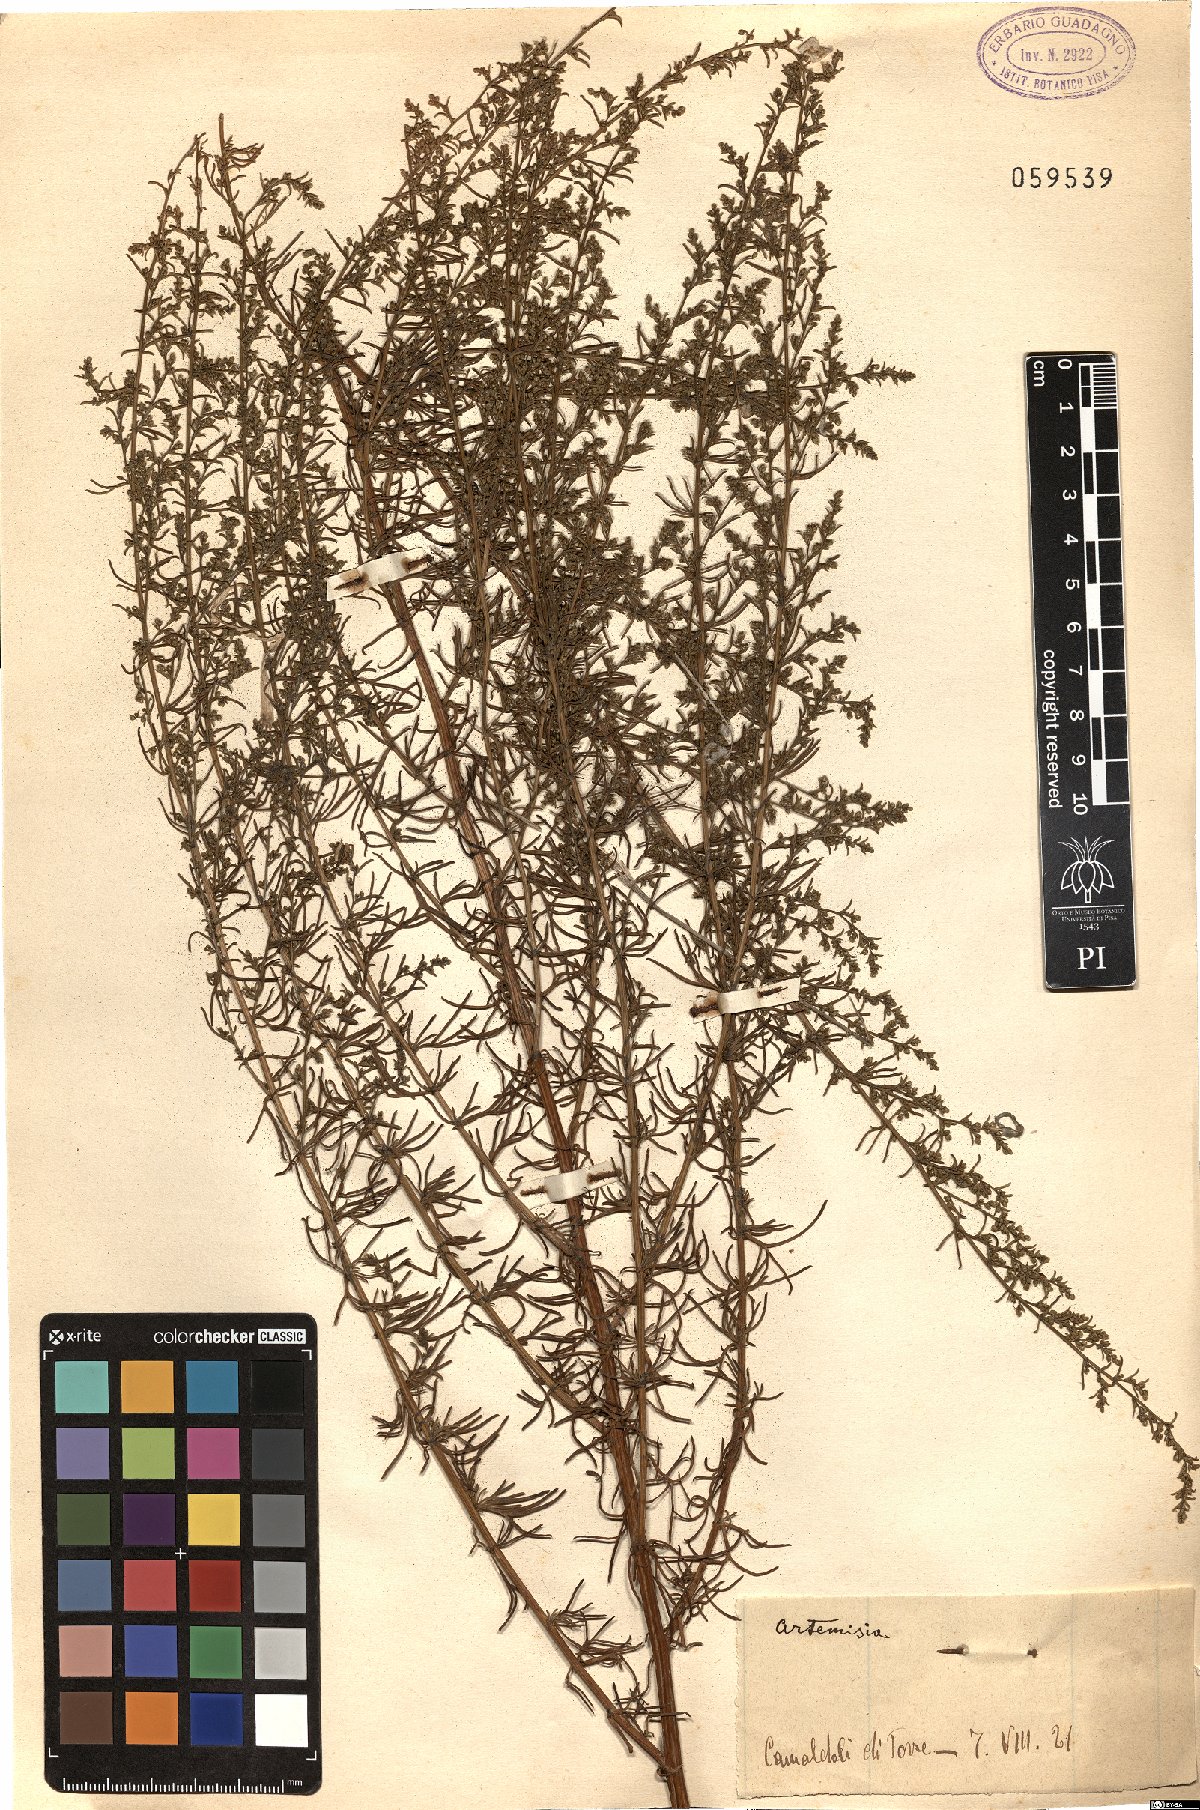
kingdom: Plantae
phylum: Tracheophyta
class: Magnoliopsida
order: Asterales
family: Asteraceae
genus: Artemisia
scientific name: Artemisia
